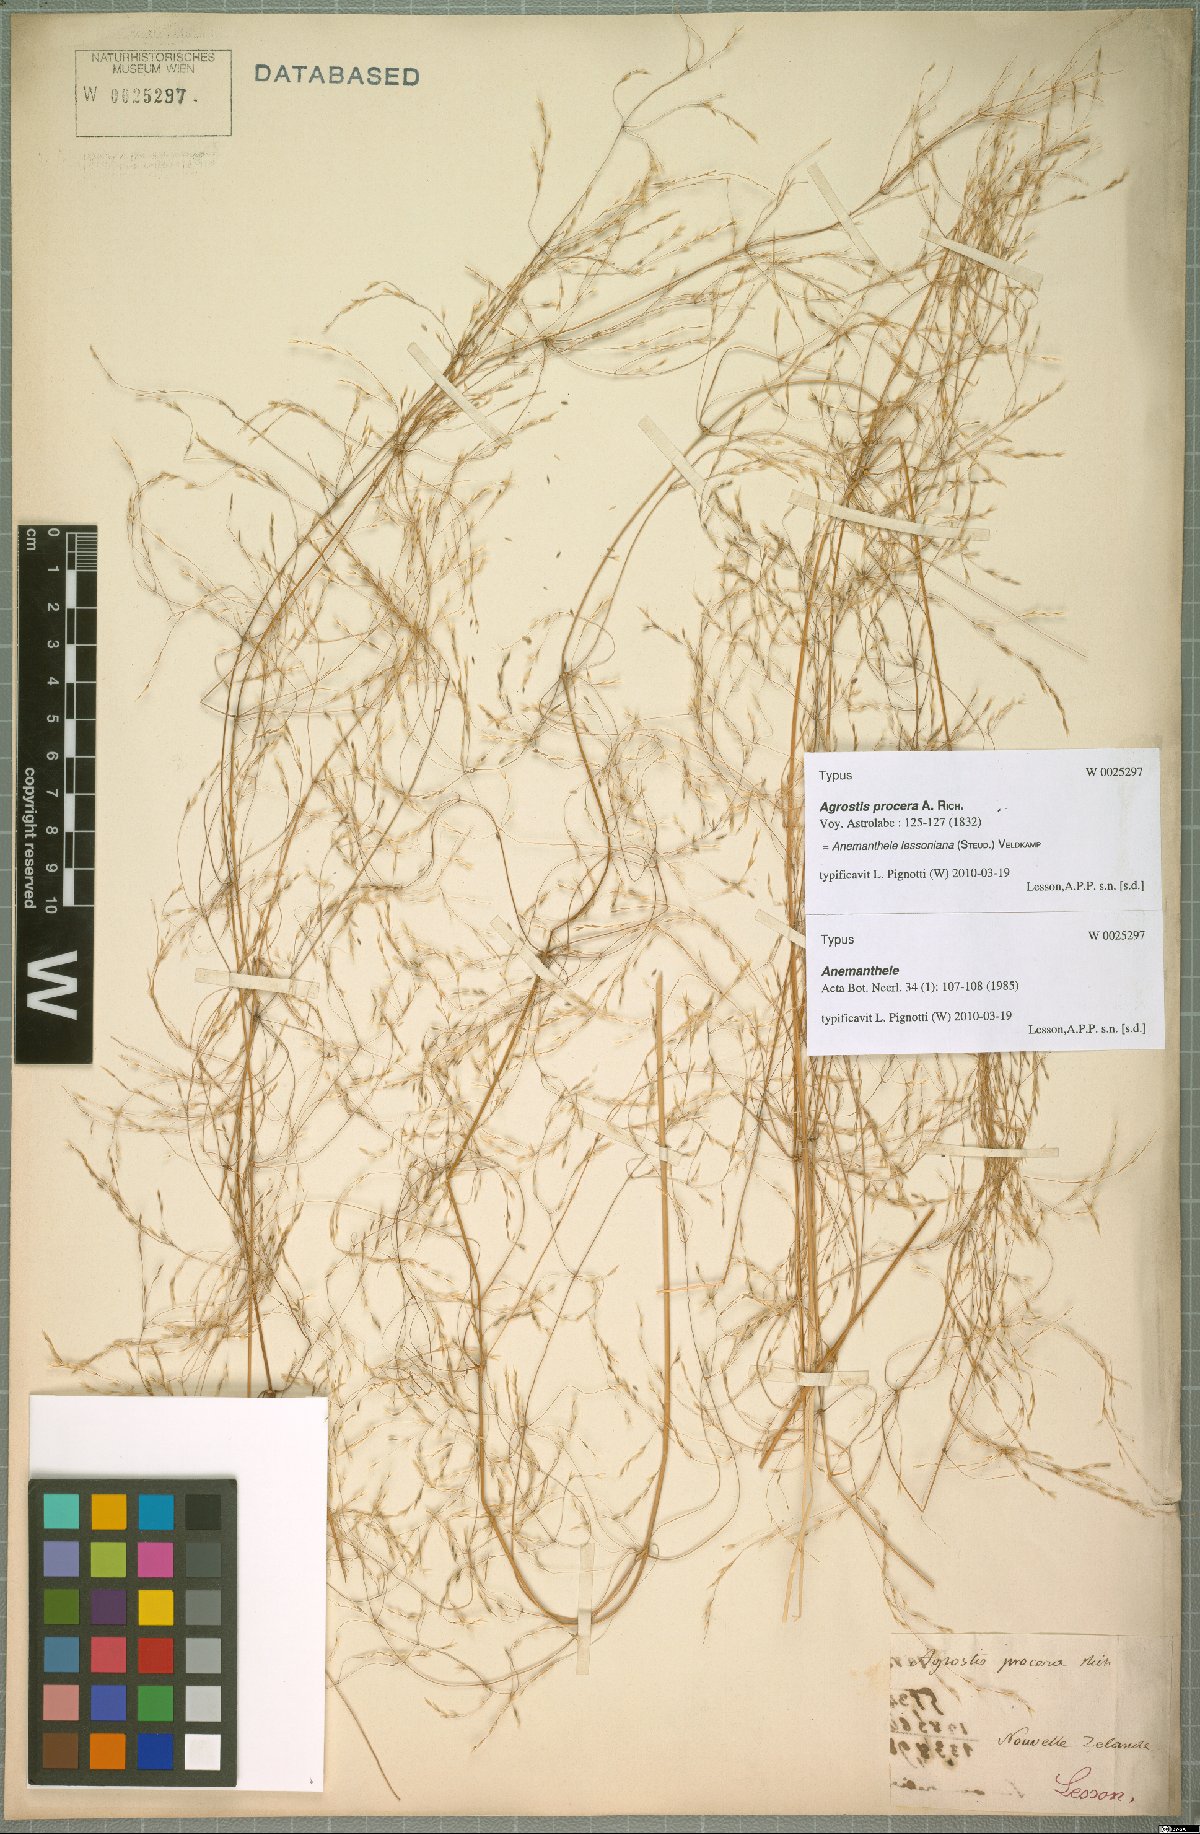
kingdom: Plantae
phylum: Tracheophyta
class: Liliopsida
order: Poales
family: Poaceae
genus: Anemanthele
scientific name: Anemanthele lessoniana
